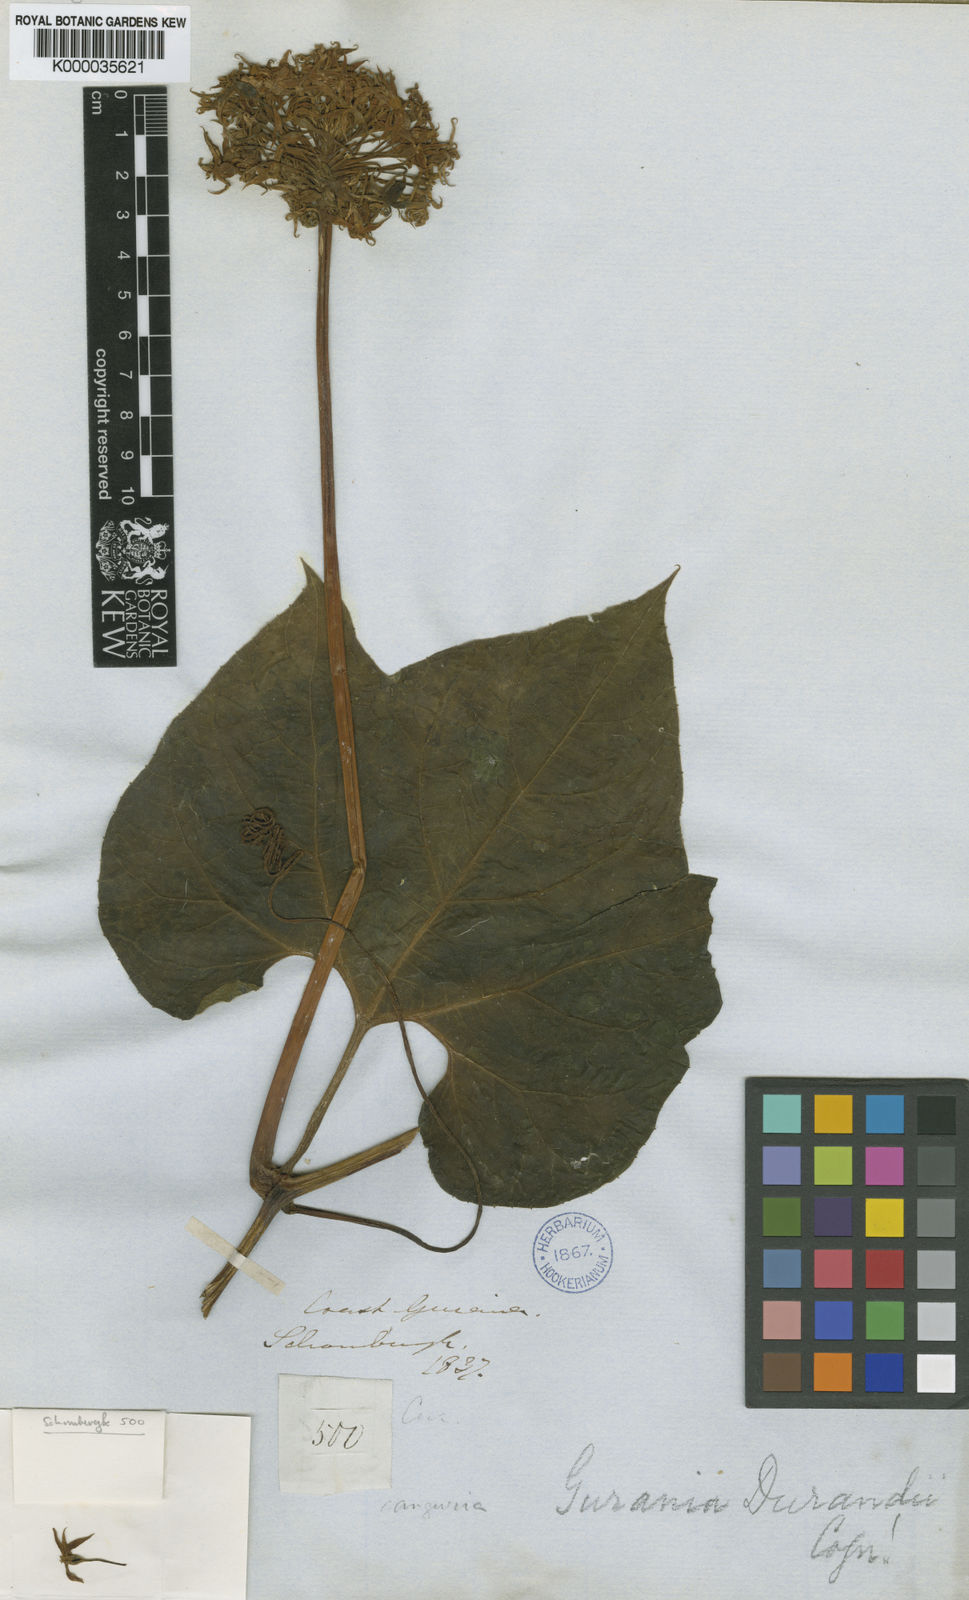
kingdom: Plantae
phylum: Tracheophyta
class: Magnoliopsida
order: Cucurbitales
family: Cucurbitaceae
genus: Gurania
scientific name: Gurania subumbellata
